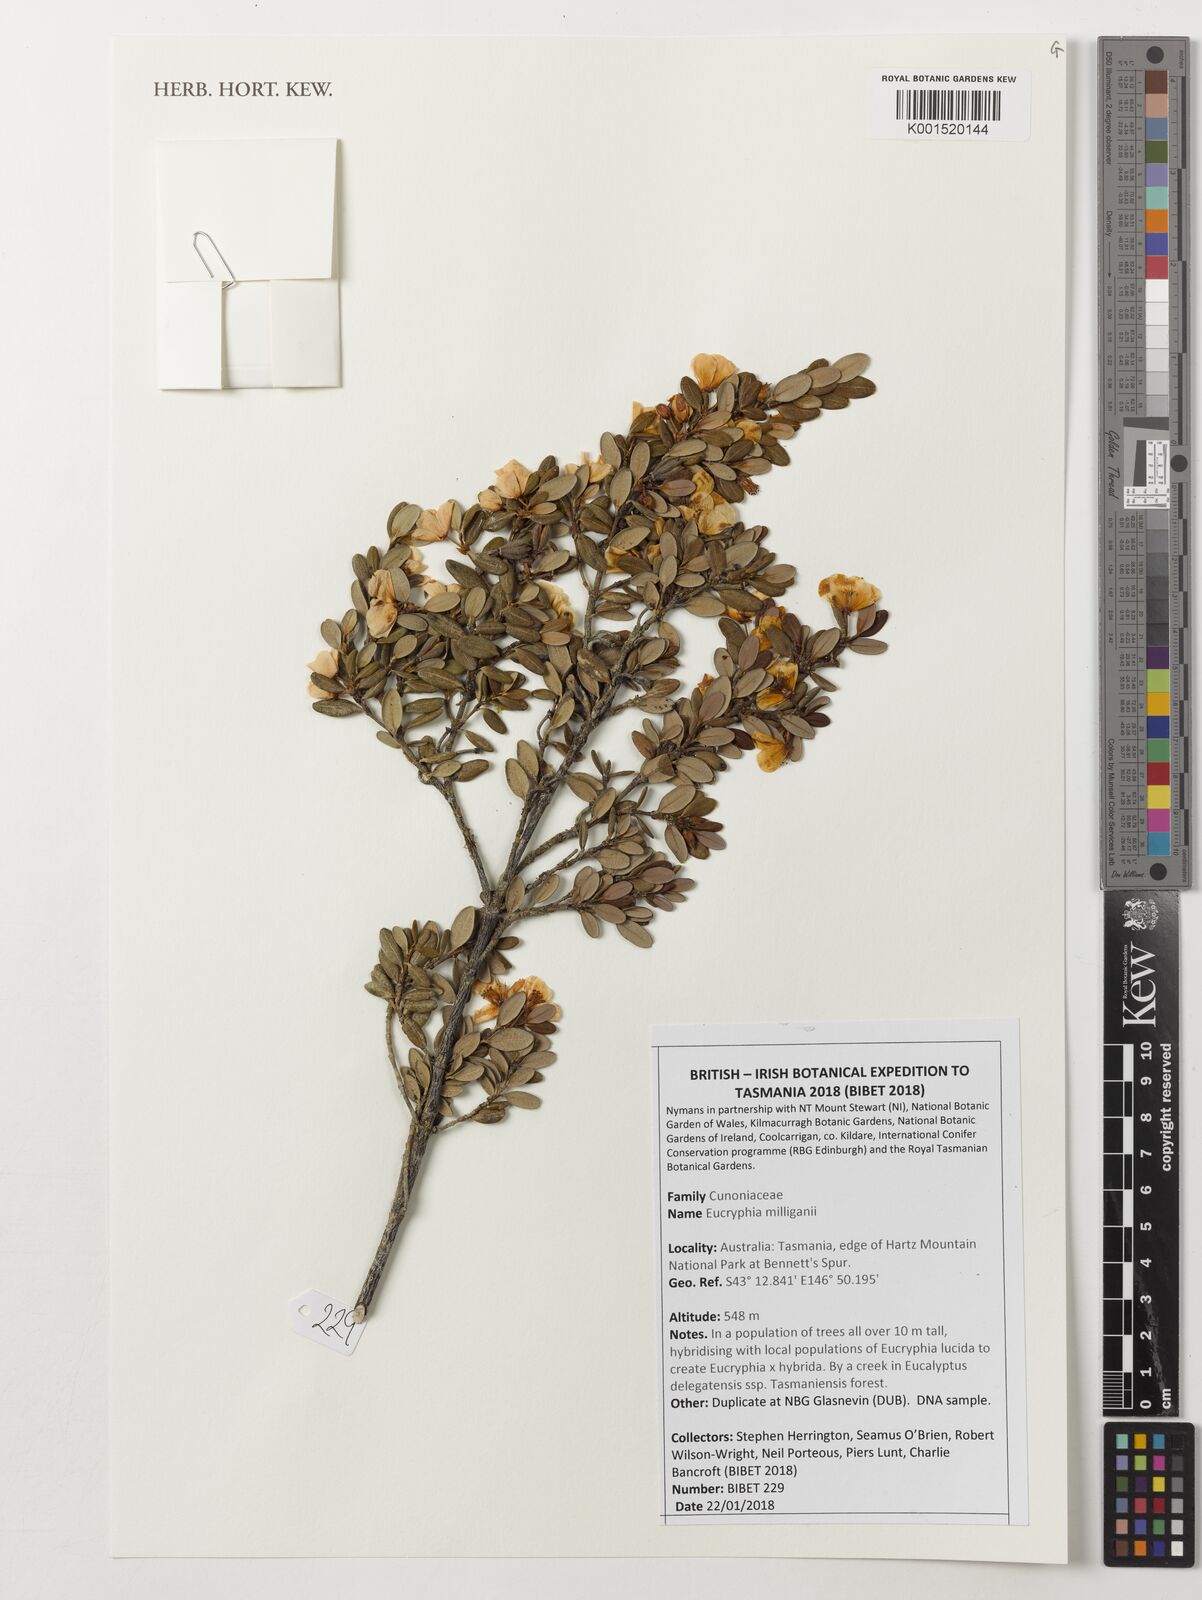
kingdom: Plantae
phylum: Tracheophyta
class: Magnoliopsida
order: Oxalidales
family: Cunoniaceae
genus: Eucryphia
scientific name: Eucryphia milliganii
